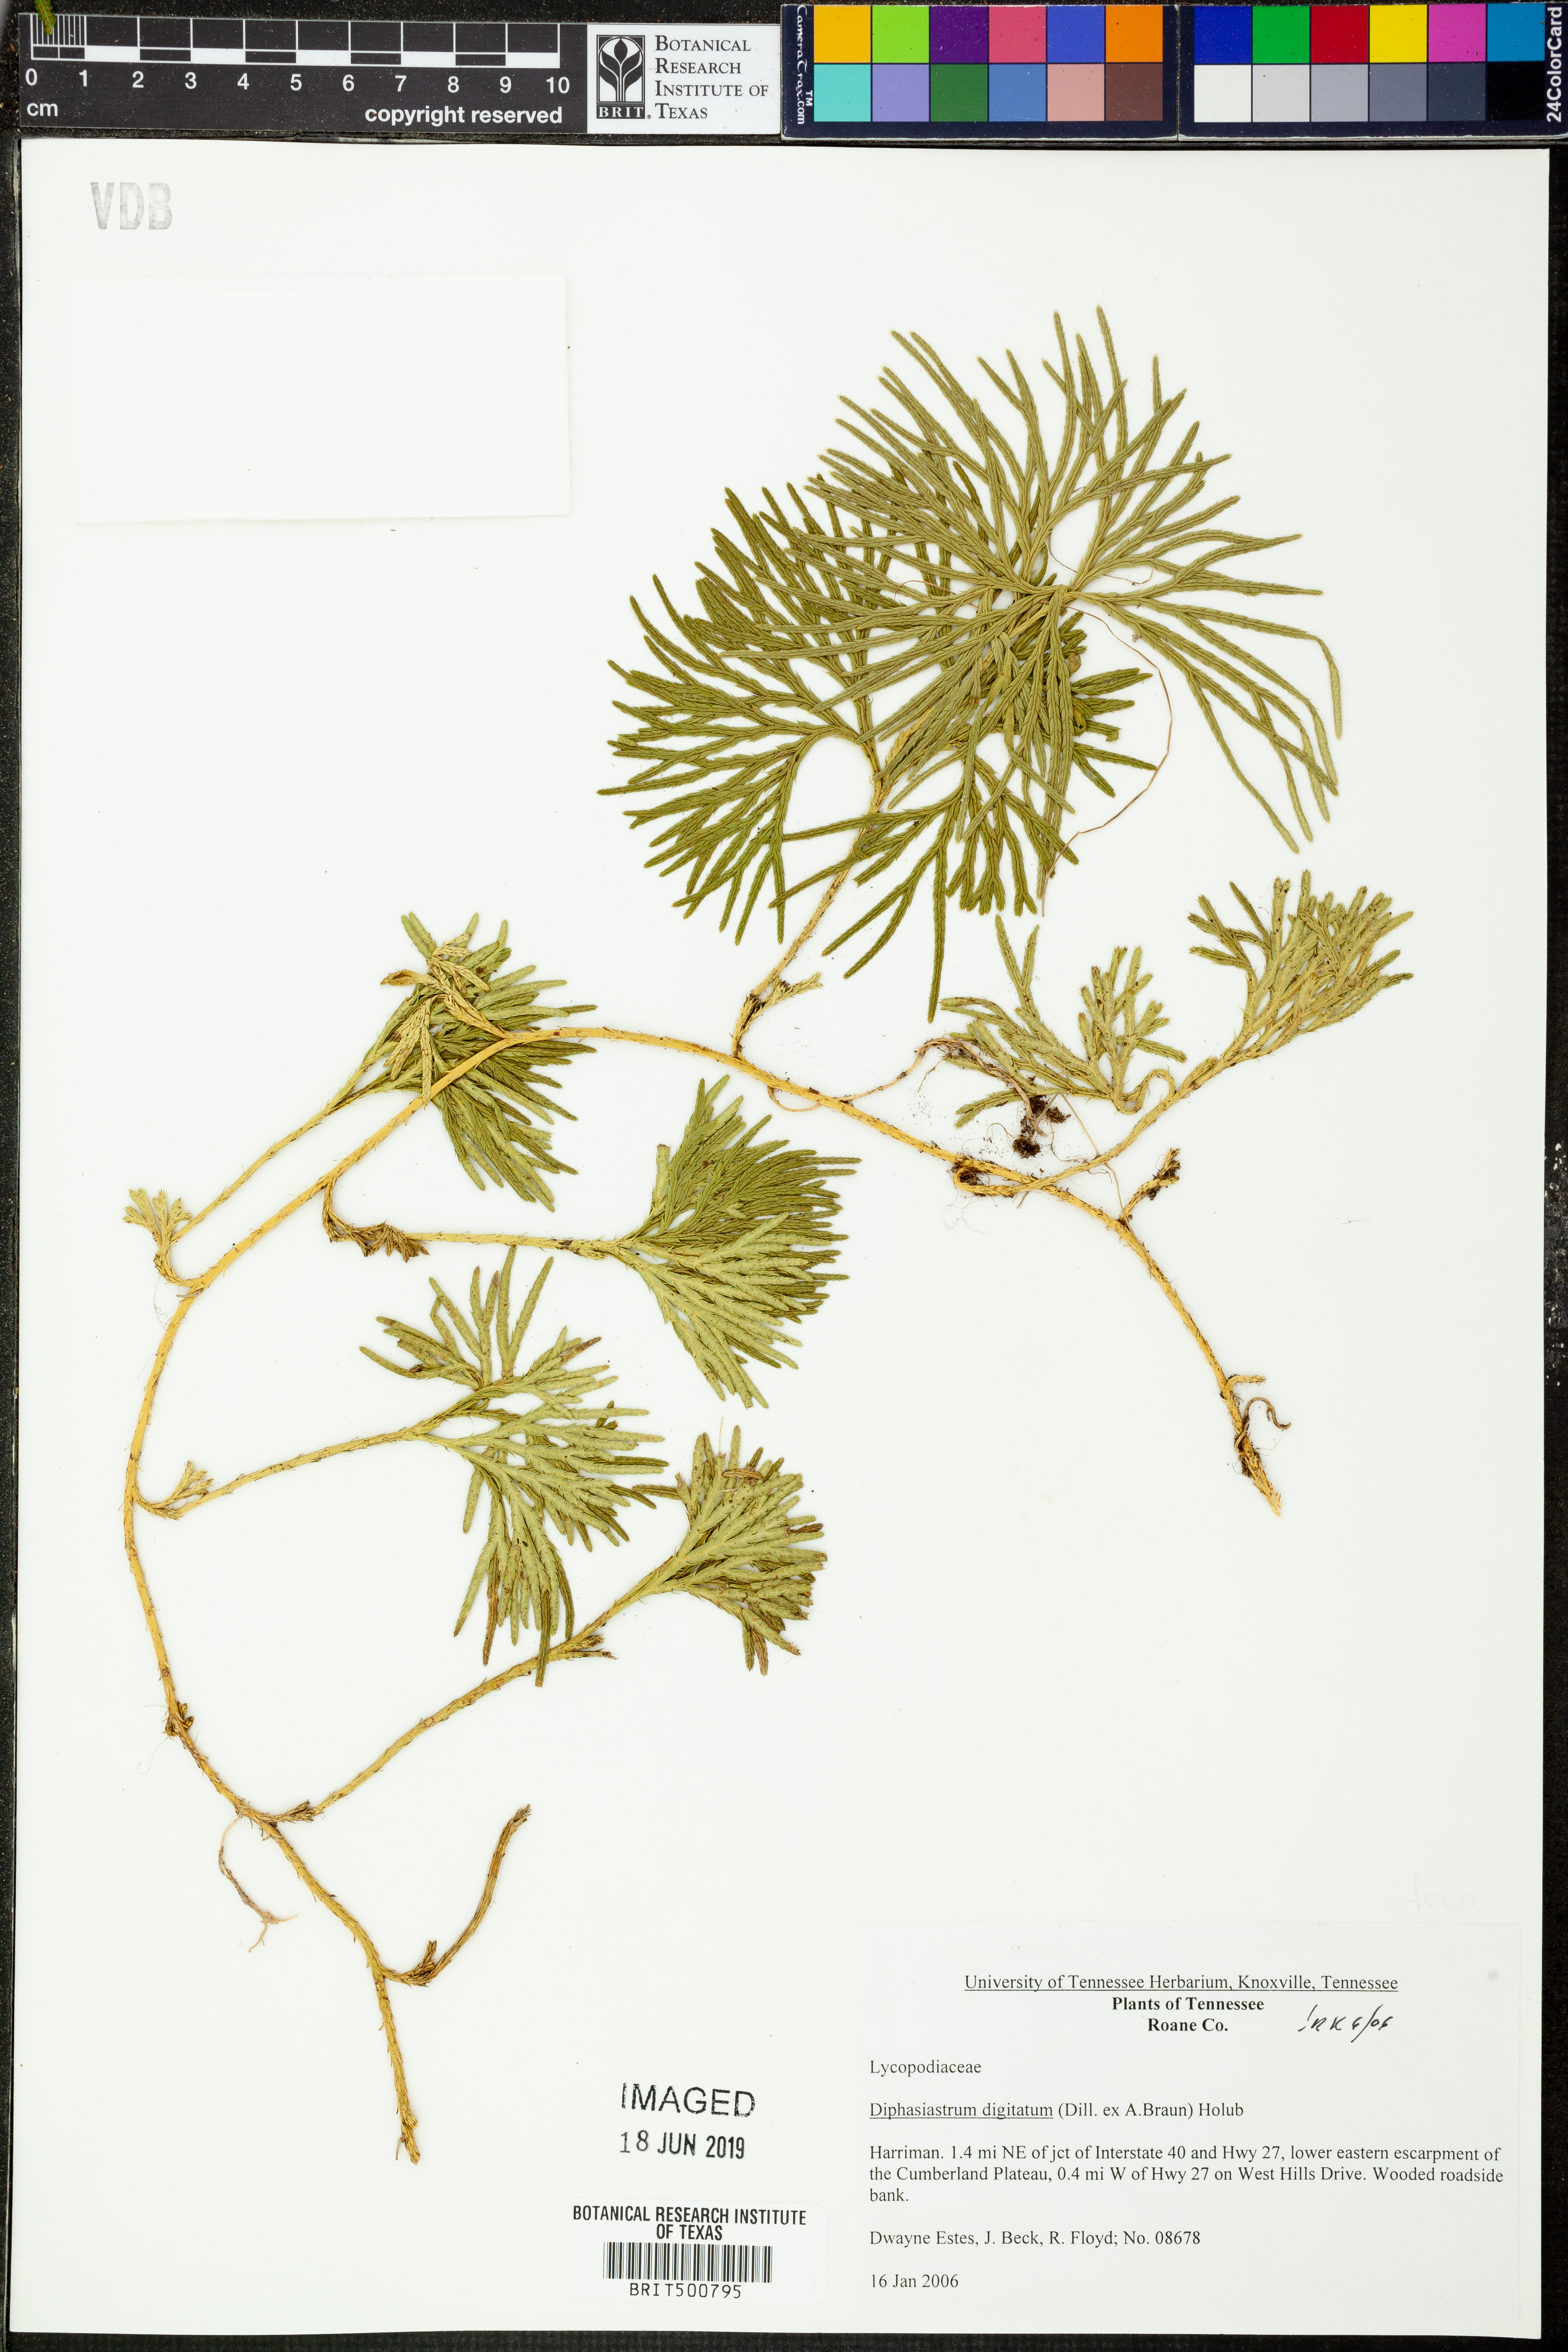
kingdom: Plantae
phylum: Tracheophyta
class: Lycopodiopsida
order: Lycopodiales
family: Lycopodiaceae
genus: Diphasiastrum
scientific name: Diphasiastrum digitatum
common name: Southern running-pine
